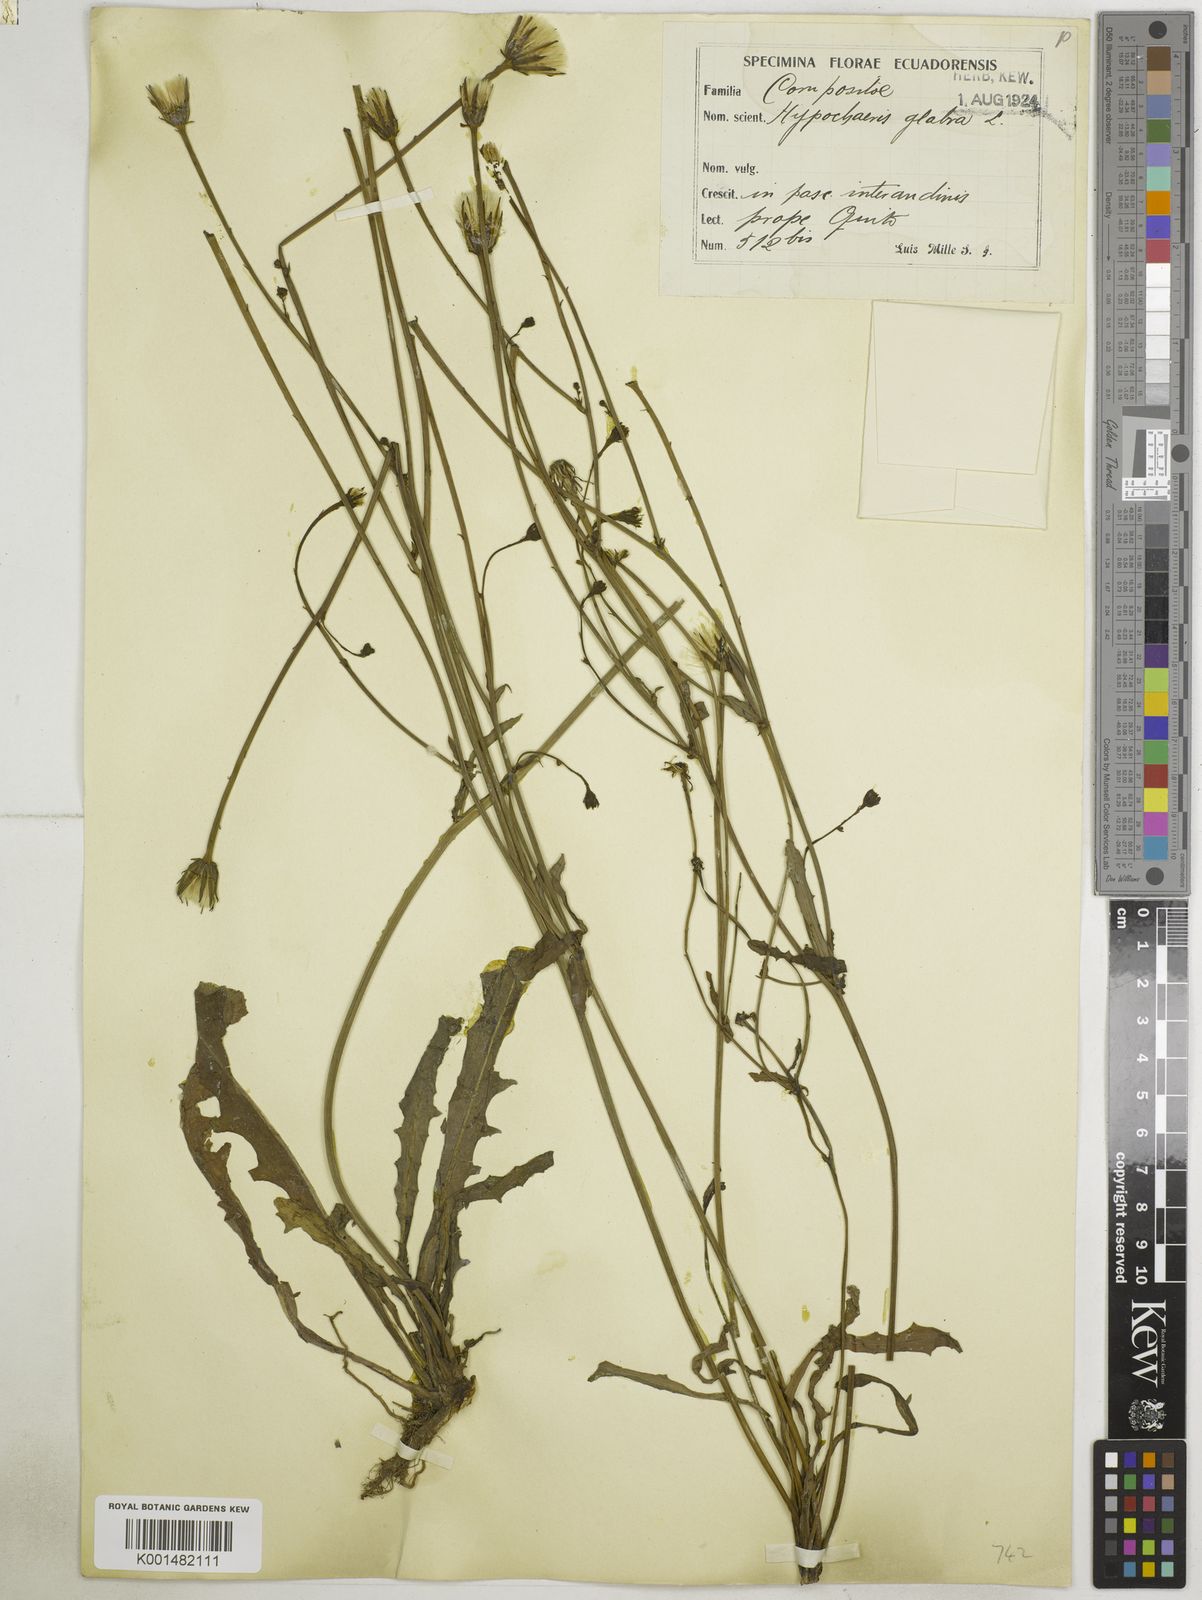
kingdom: Plantae
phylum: Tracheophyta
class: Magnoliopsida
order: Asterales
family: Asteraceae
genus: Hypochaeris
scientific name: Hypochaeris glabra
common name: Smooth catsear
